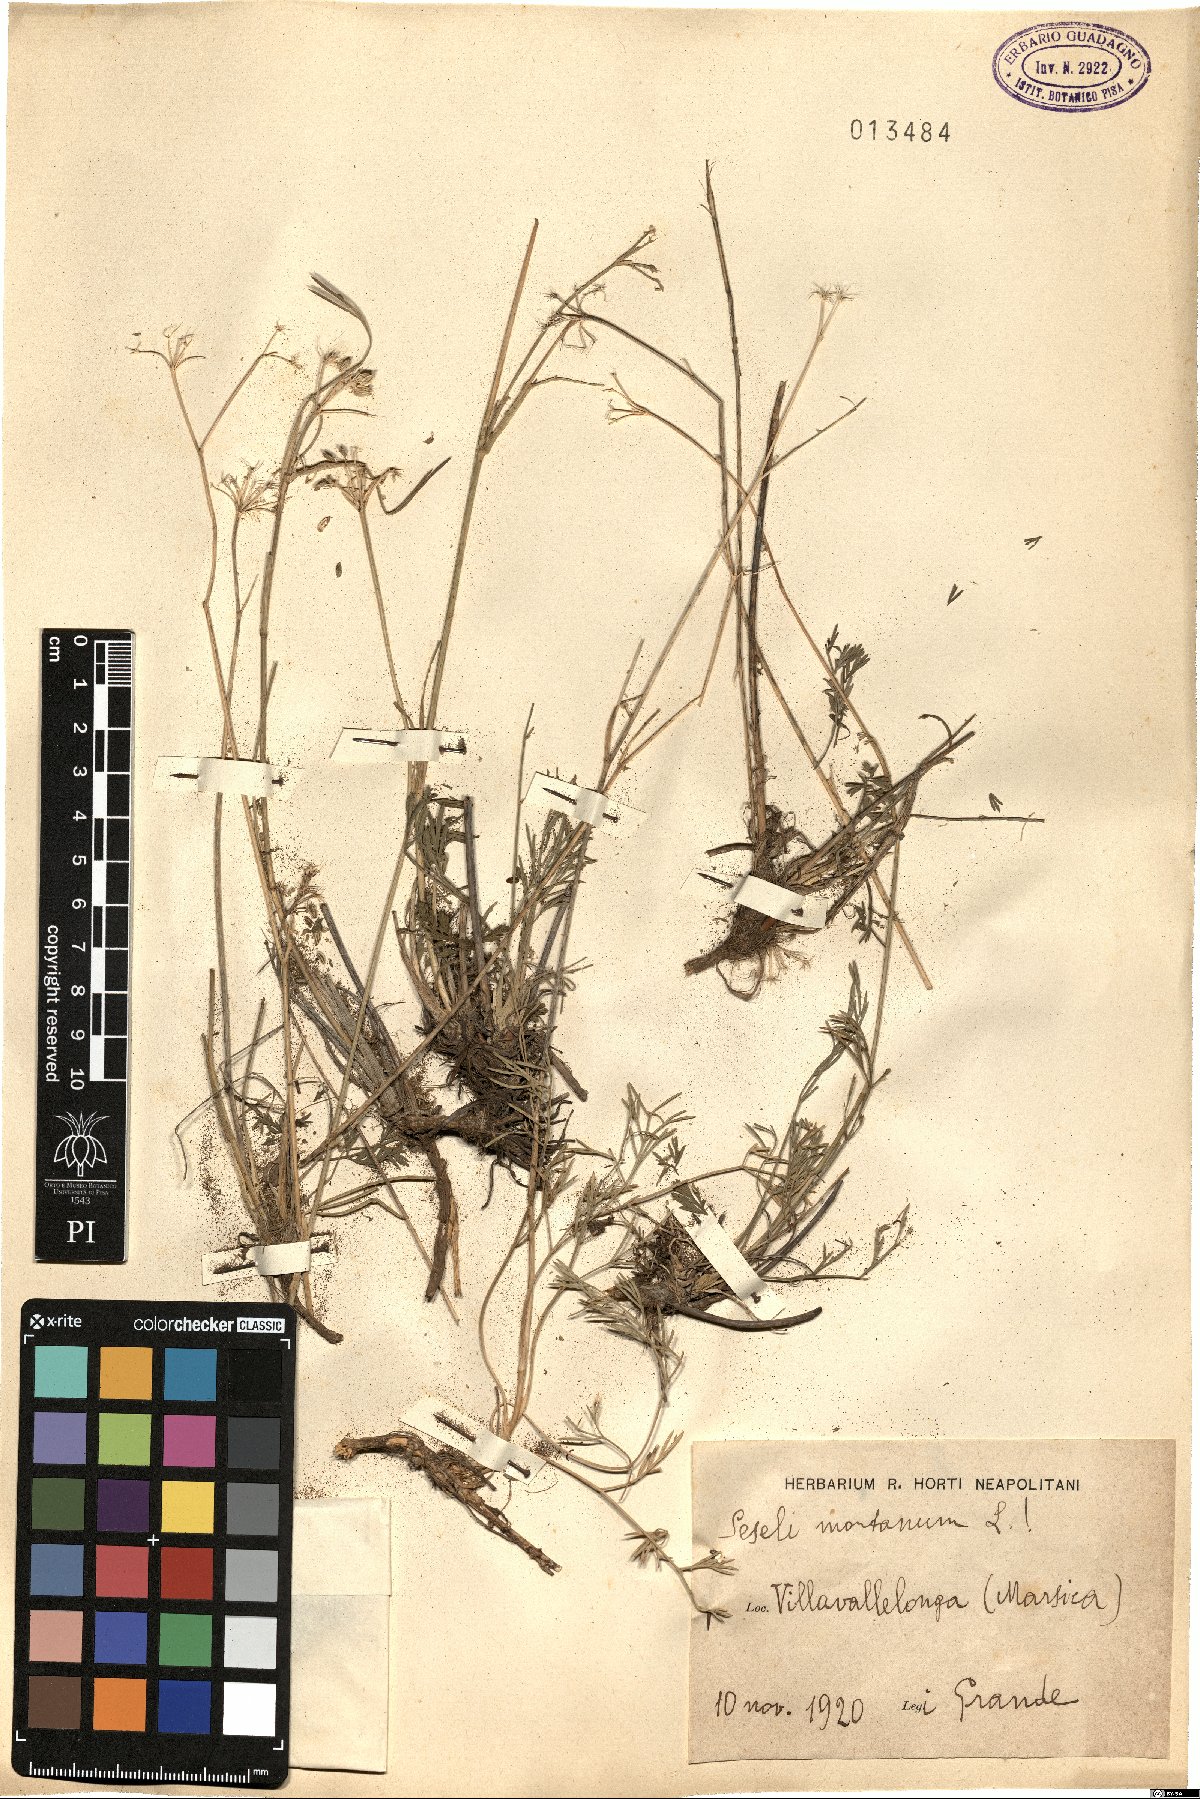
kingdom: Plantae
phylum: Tracheophyta
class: Magnoliopsida
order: Apiales
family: Apiaceae
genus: Seseli
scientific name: Seseli montanum
